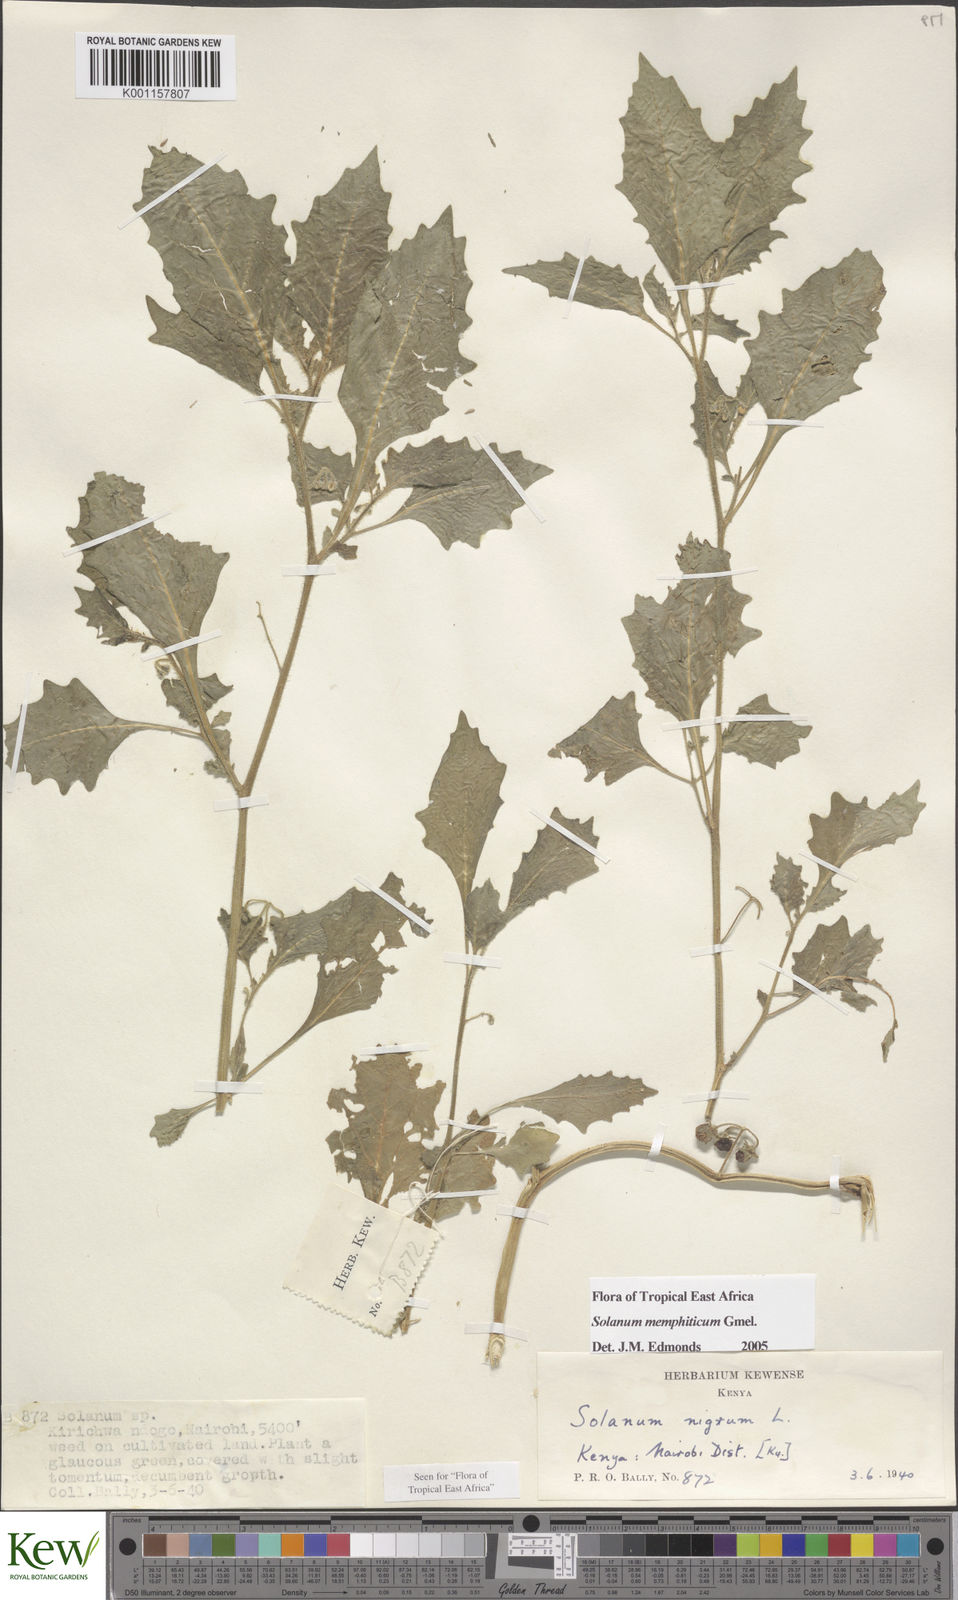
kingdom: Plantae
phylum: Tracheophyta
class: Magnoliopsida
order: Solanales
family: Solanaceae
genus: Solanum
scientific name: Solanum memphiticum
